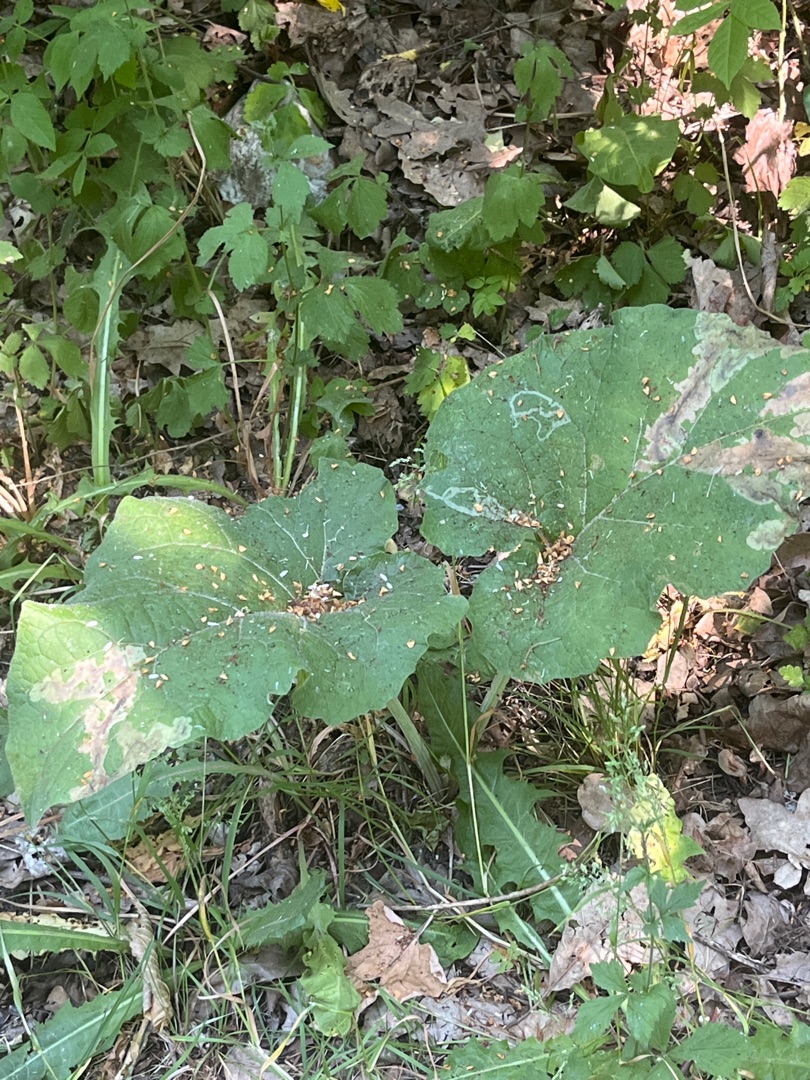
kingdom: Plantae
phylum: Tracheophyta
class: Magnoliopsida
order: Asterales
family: Asteraceae
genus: Arctium
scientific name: Arctium
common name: Burreslægten
